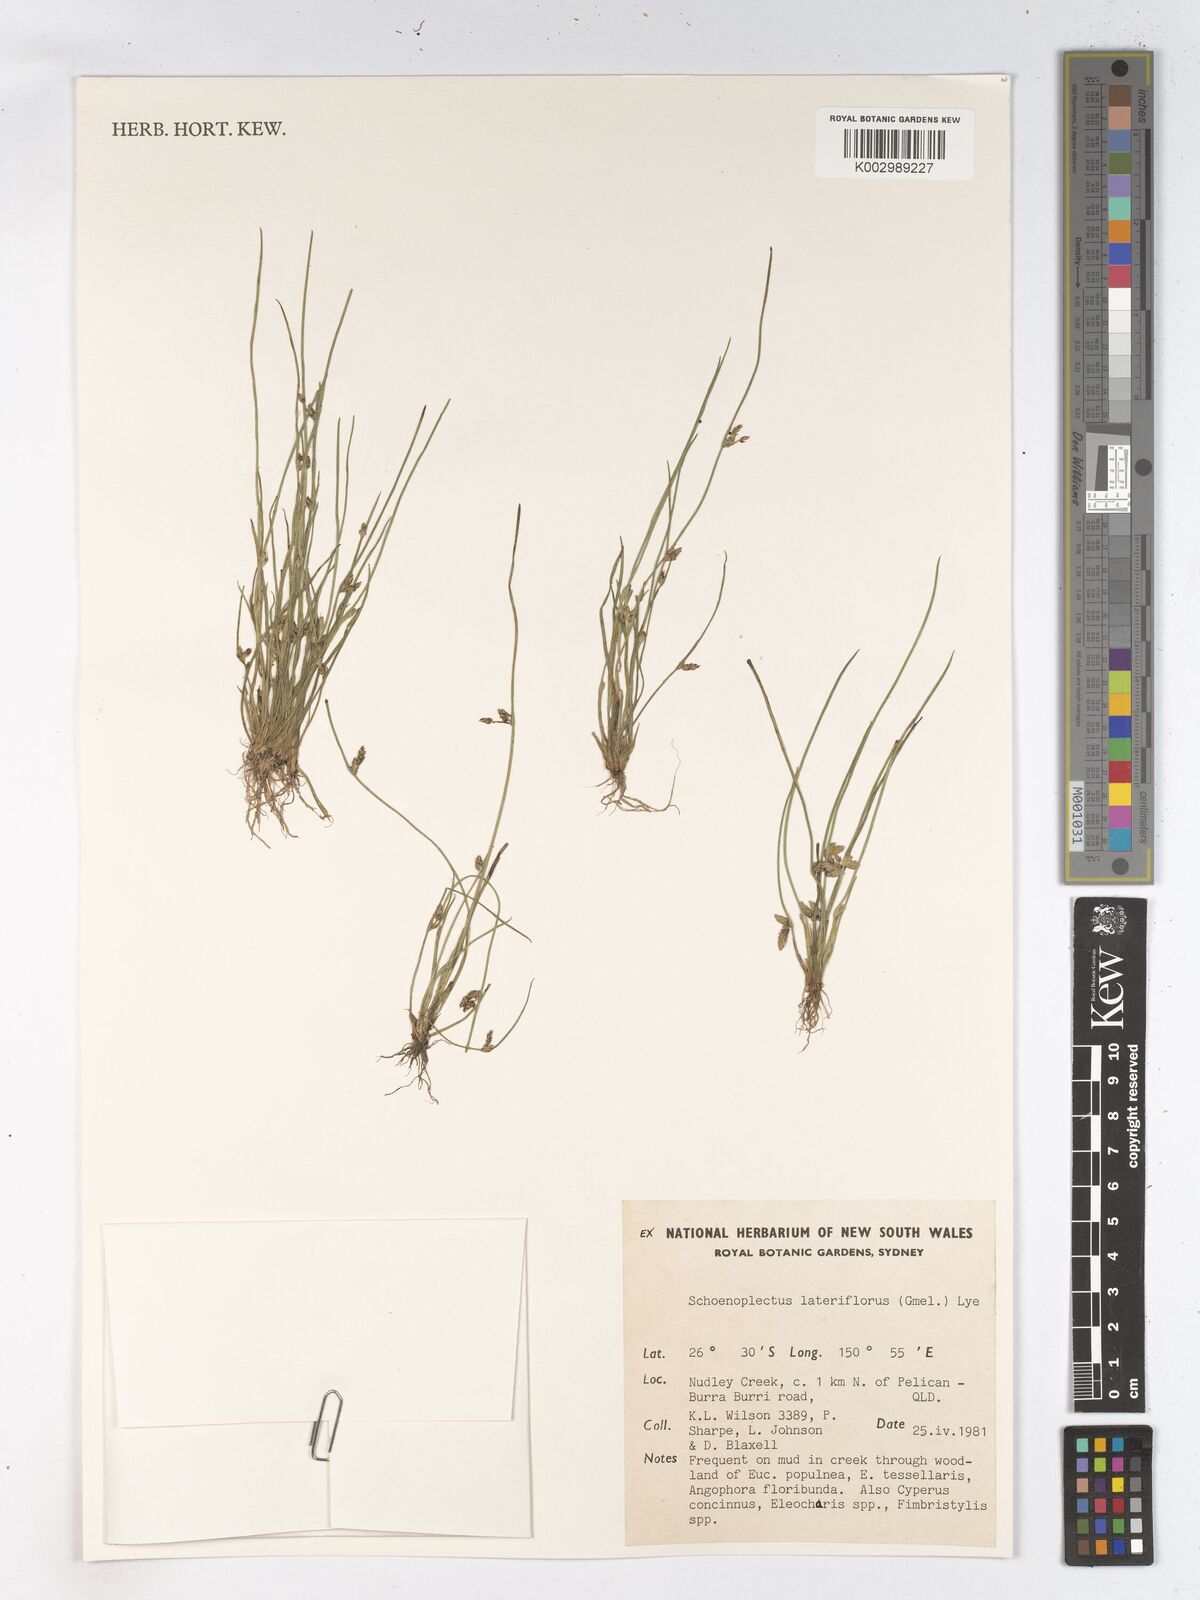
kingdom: Plantae
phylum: Tracheophyta
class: Liliopsida
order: Poales
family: Cyperaceae
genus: Schoenoplectiella
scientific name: Schoenoplectiella supina
